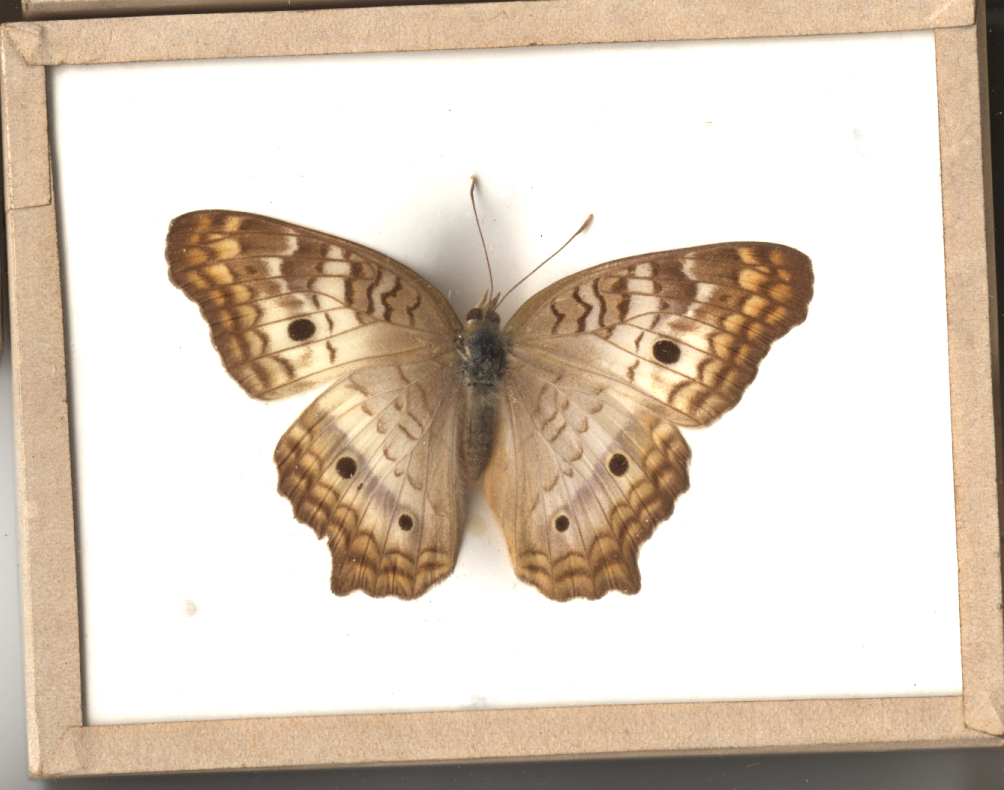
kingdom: Animalia
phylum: Arthropoda
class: Insecta
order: Lepidoptera
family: Nymphalidae
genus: Anartia
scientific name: Anartia jatrophae
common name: White Peacock
